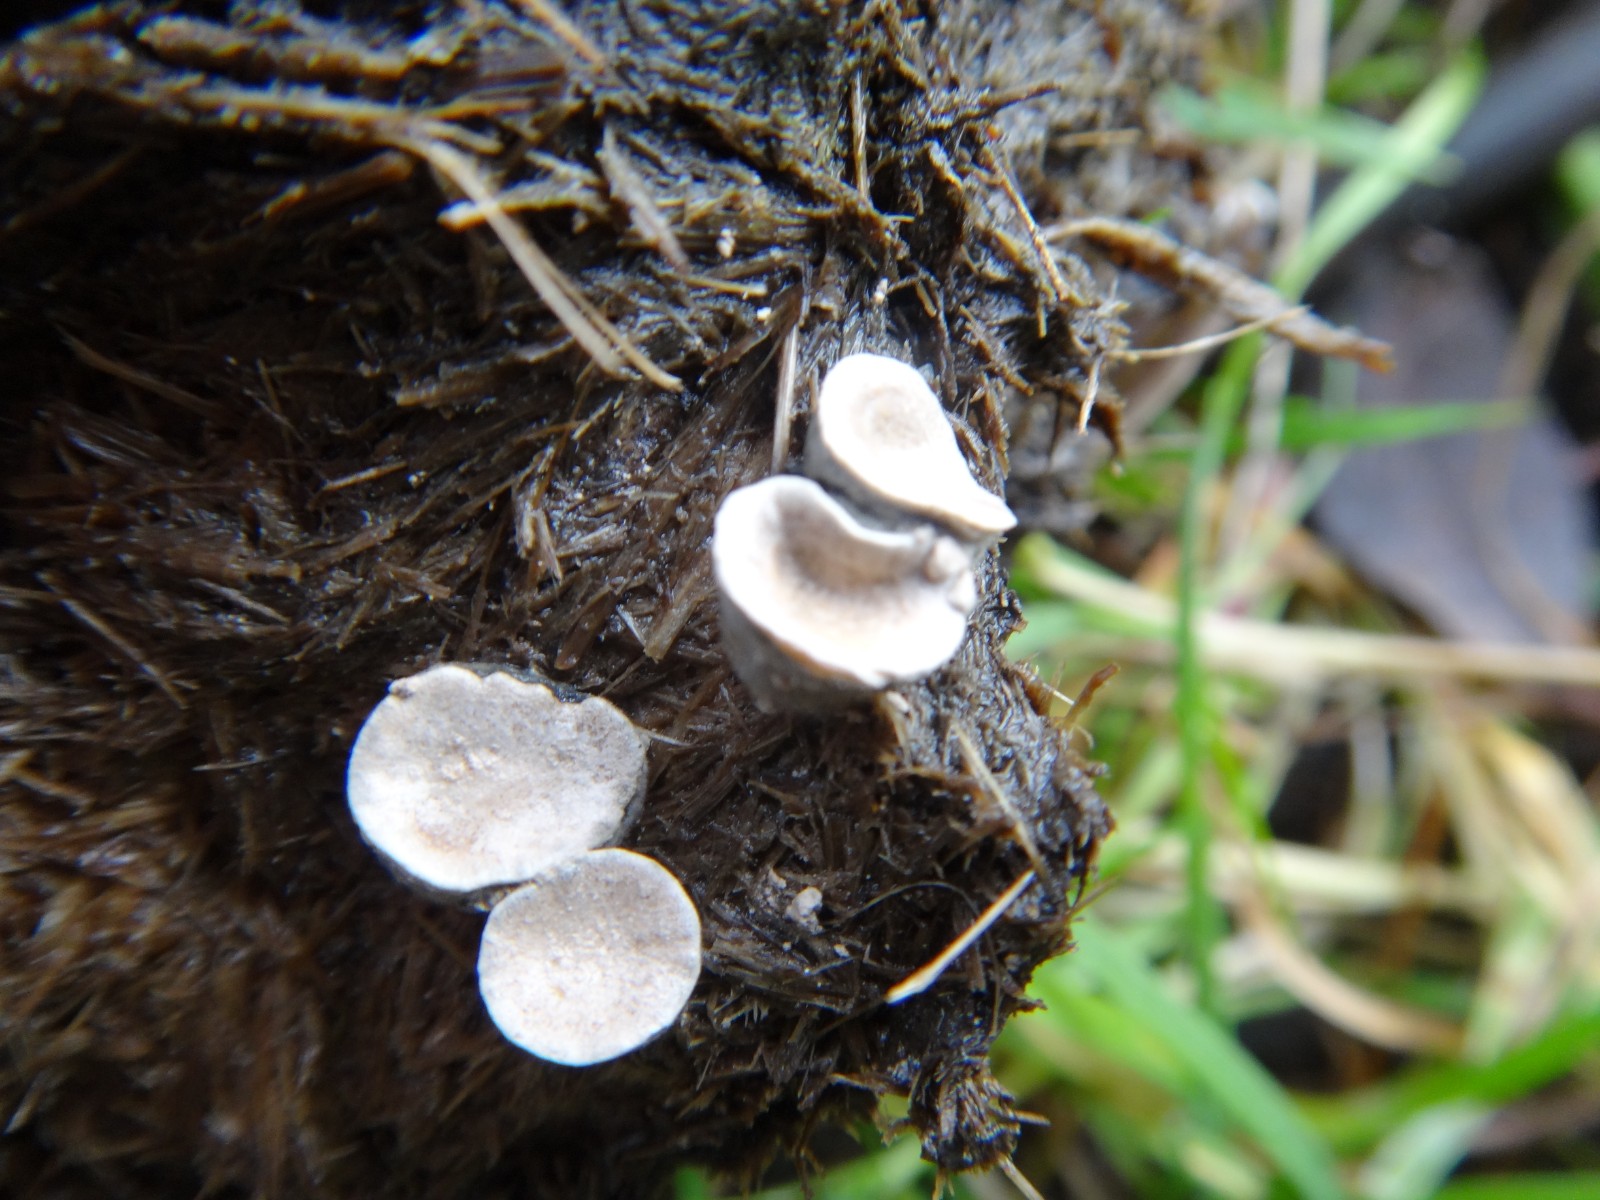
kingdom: Fungi
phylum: Ascomycota
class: Sordariomycetes
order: Xylariales
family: Xylariaceae
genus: Poronia
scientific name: Poronia punctata
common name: stor priksvamp
